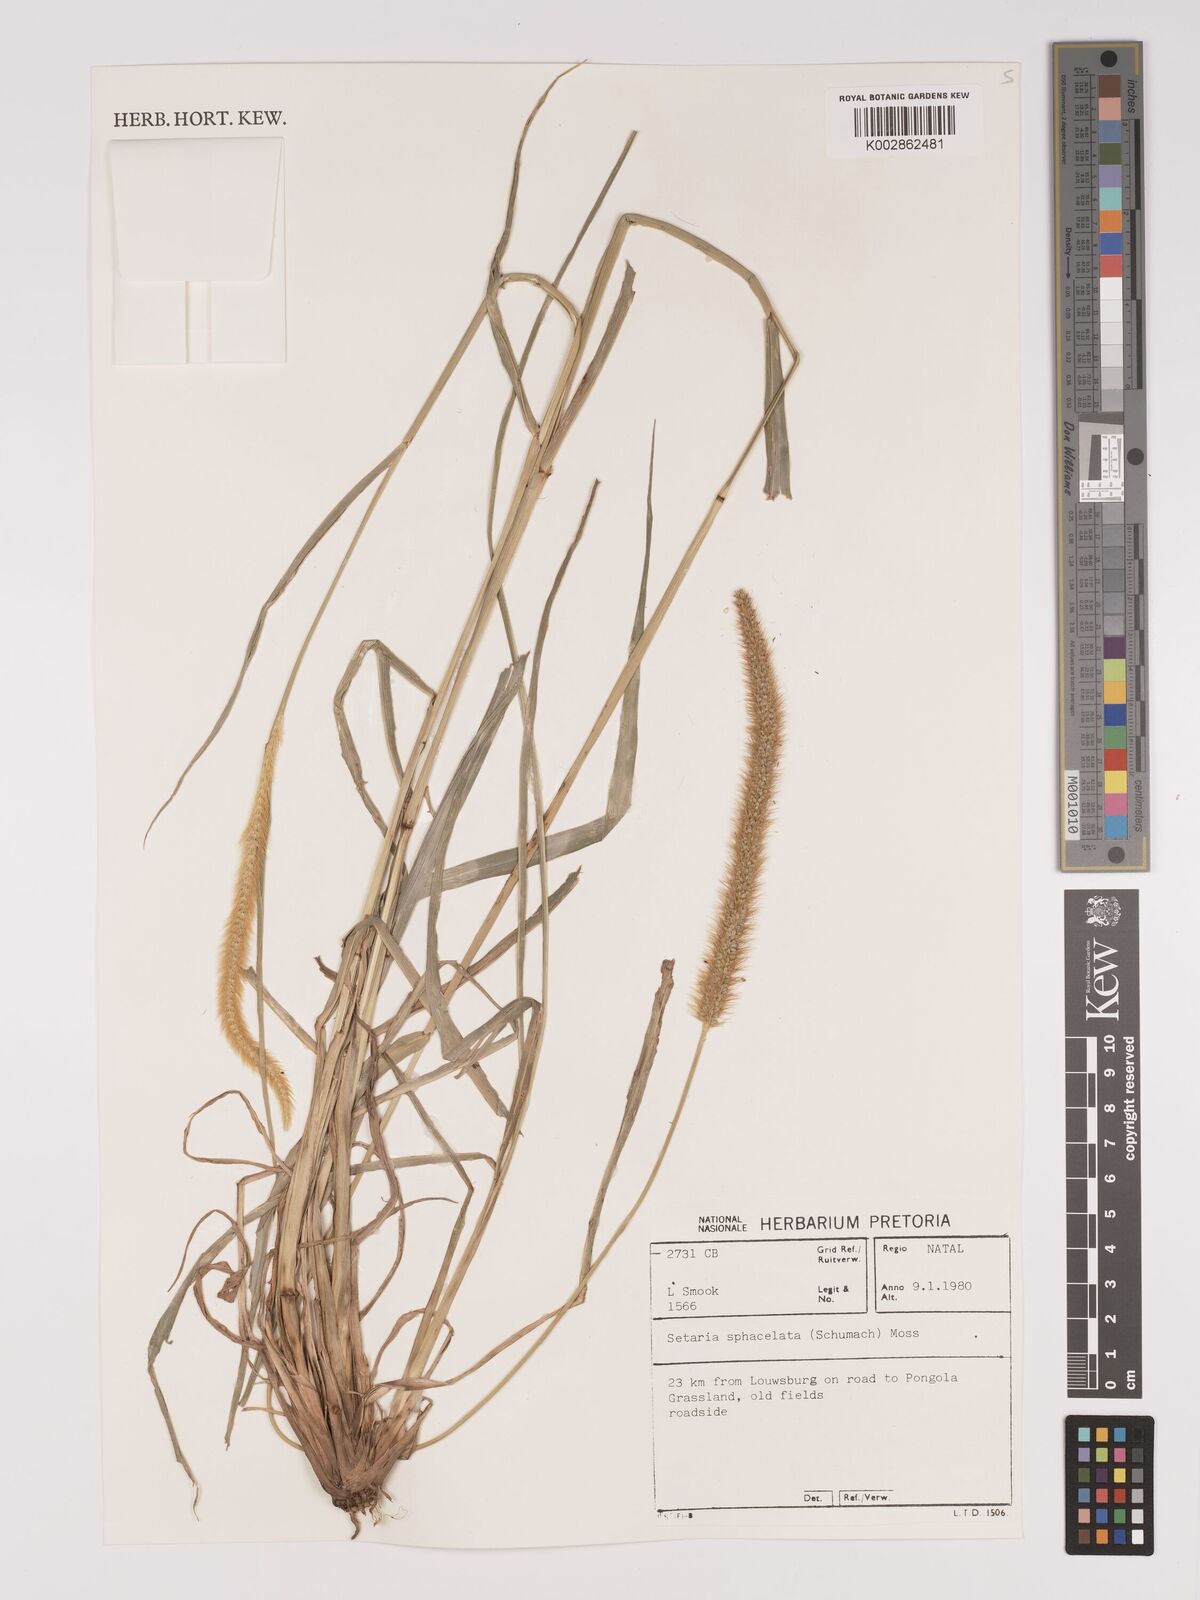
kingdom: Plantae
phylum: Tracheophyta
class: Liliopsida
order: Poales
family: Poaceae
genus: Setaria
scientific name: Setaria sphacelata
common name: African bristlegrass
